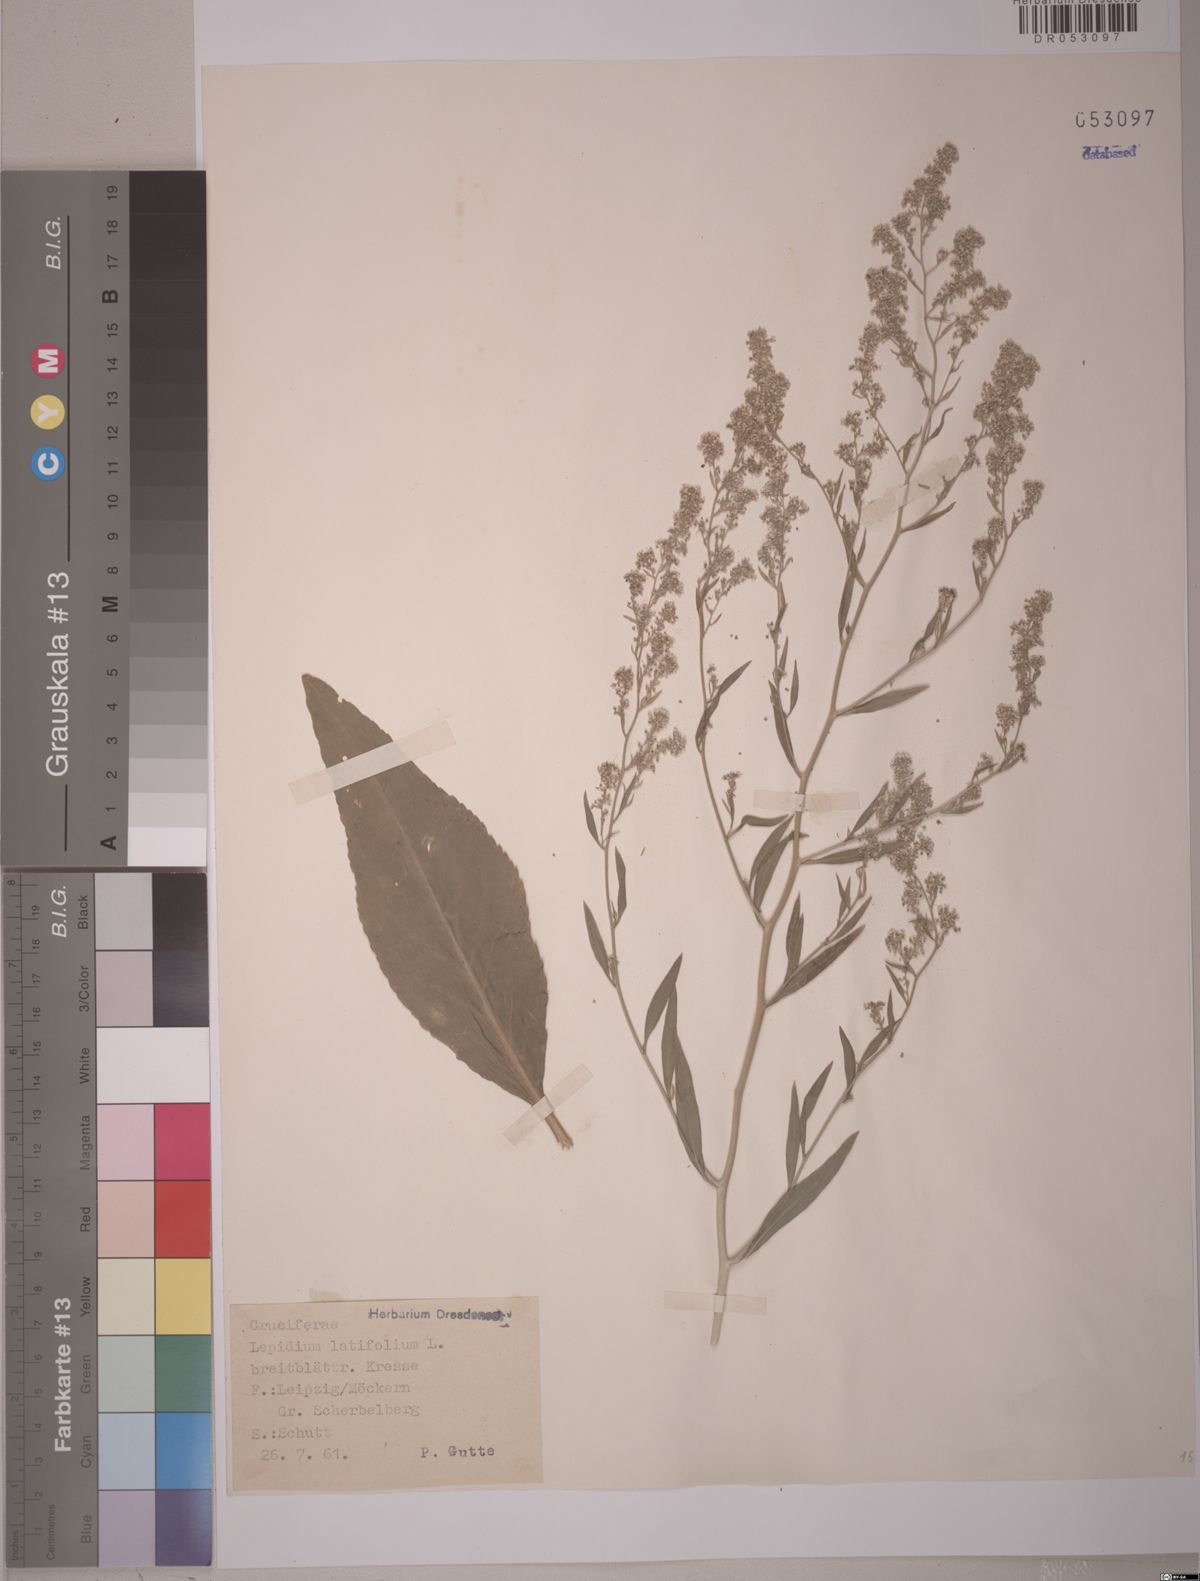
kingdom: Plantae
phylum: Tracheophyta
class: Magnoliopsida
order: Brassicales
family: Brassicaceae
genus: Lepidium
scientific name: Lepidium latifolium
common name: Dittander
